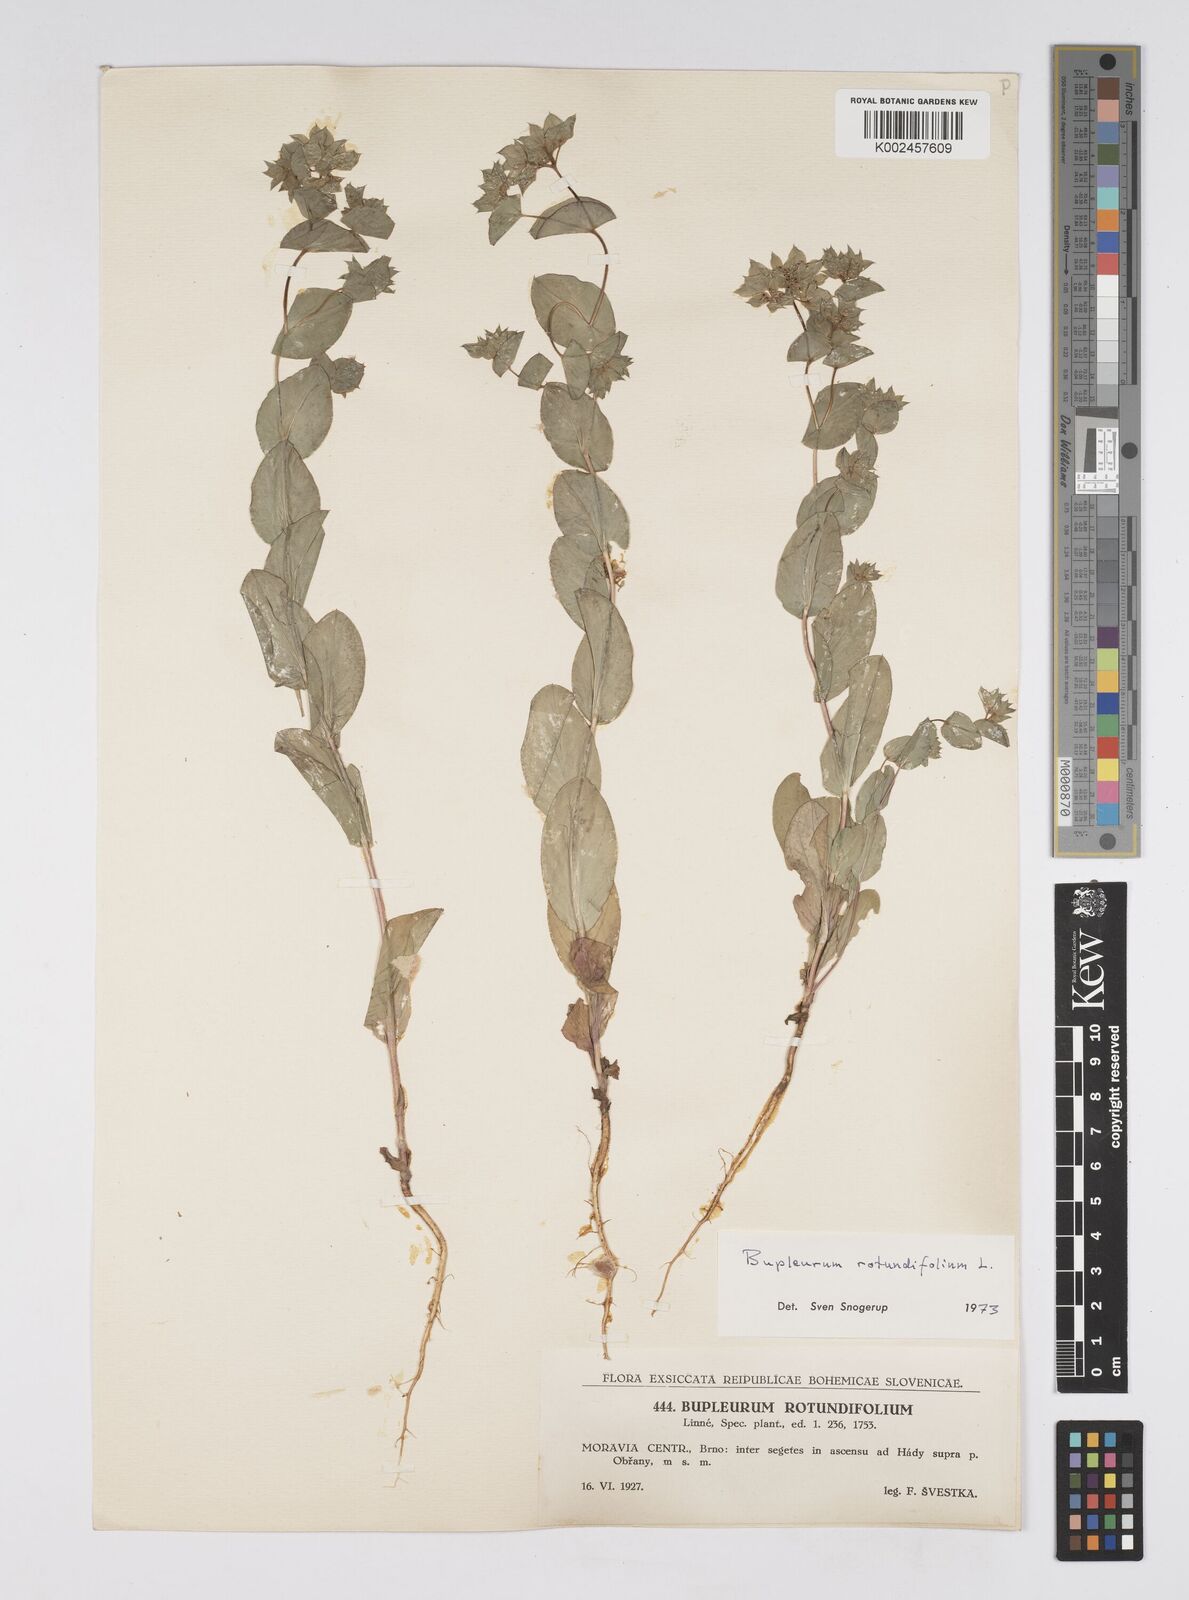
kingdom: Plantae
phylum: Tracheophyta
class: Magnoliopsida
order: Apiales
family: Apiaceae
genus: Bupleurum
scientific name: Bupleurum rotundifolium
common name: Thorow-wax
